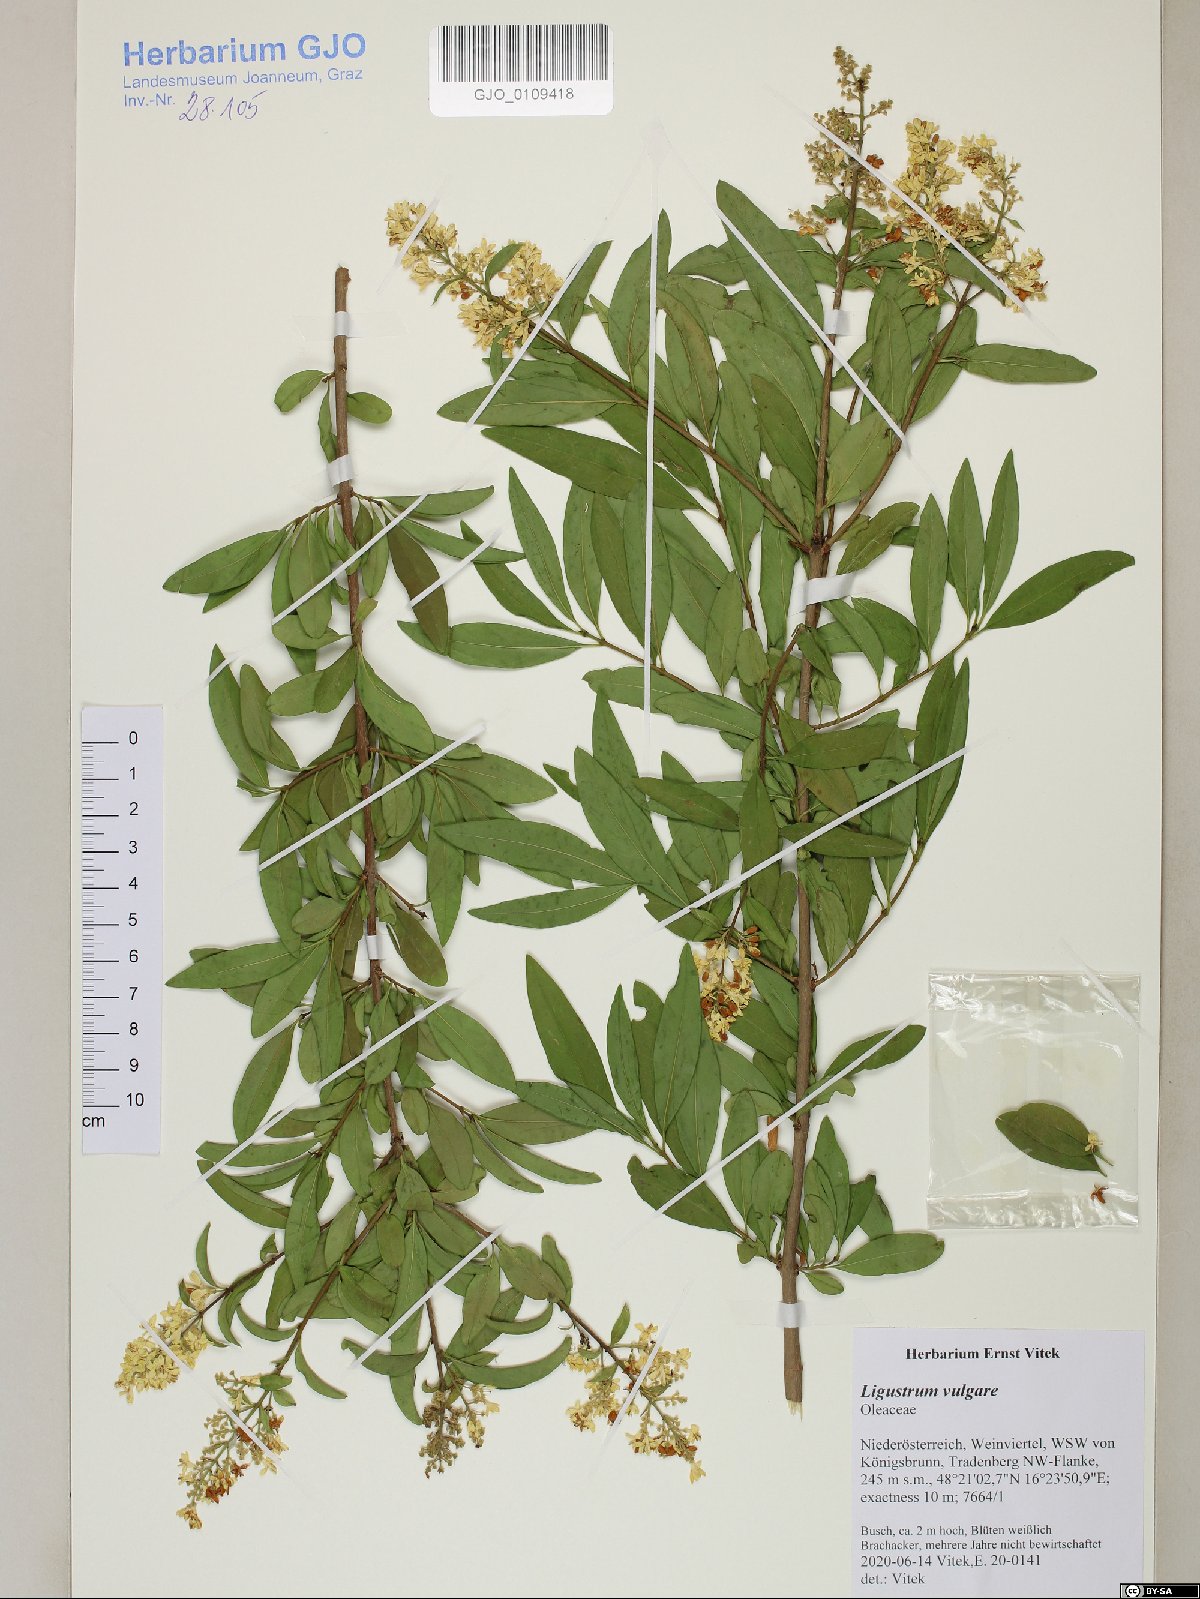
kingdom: Plantae
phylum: Tracheophyta
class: Magnoliopsida
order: Lamiales
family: Oleaceae
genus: Ligustrum
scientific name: Ligustrum vulgare
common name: Wild privet
